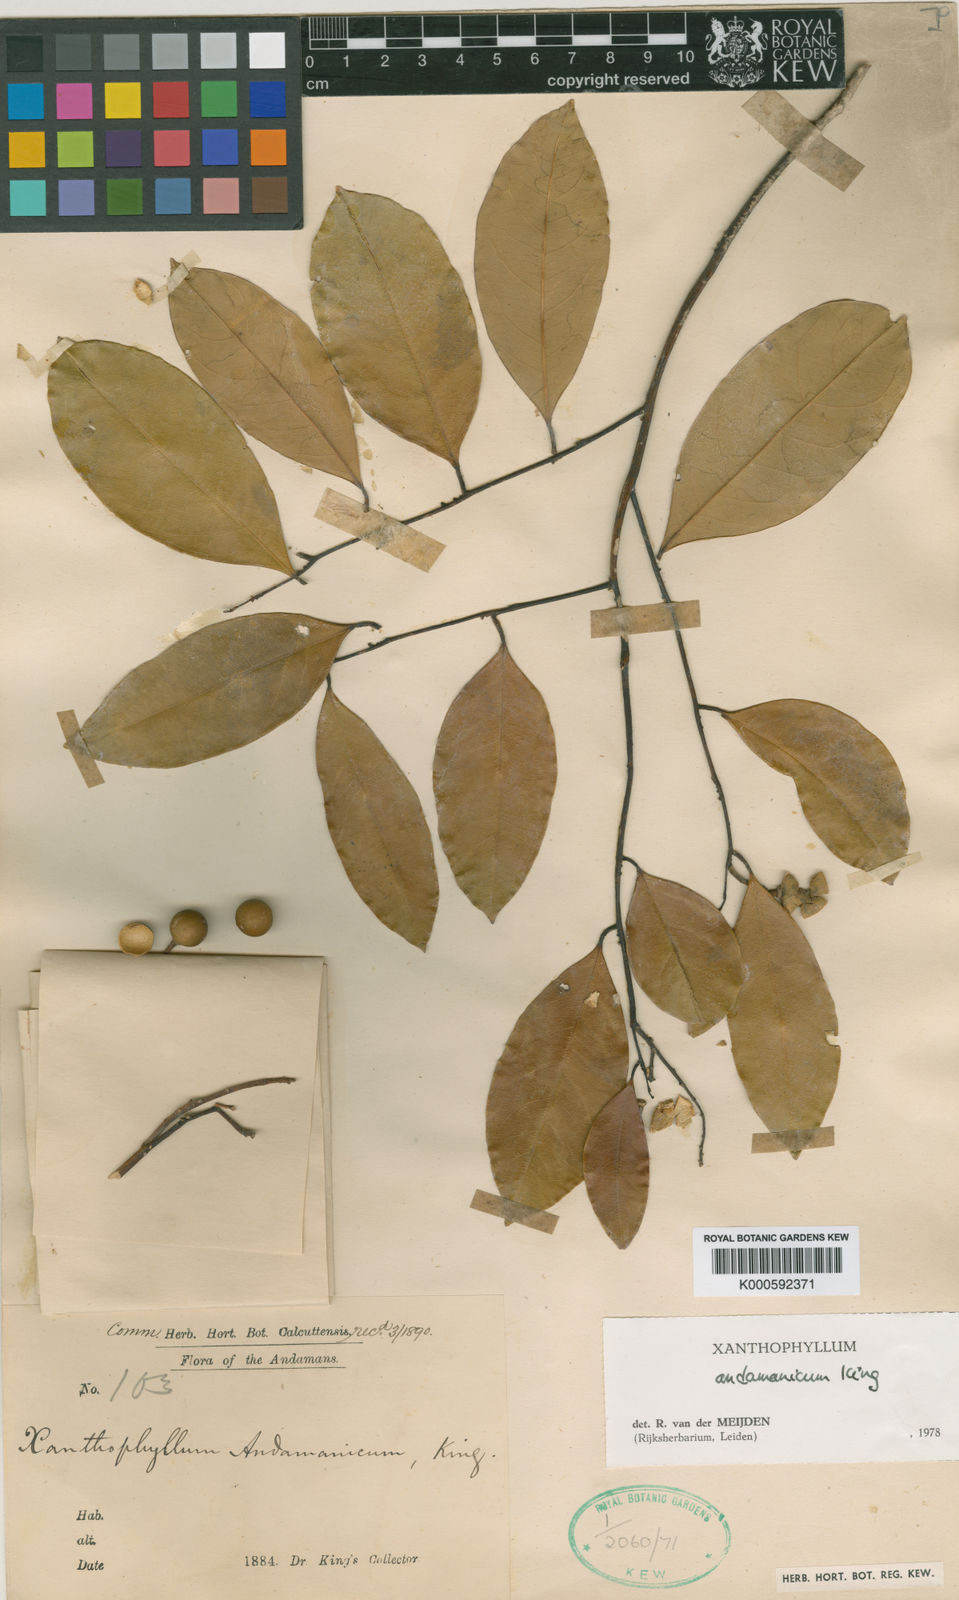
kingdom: Plantae
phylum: Tracheophyta
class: Magnoliopsida
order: Fabales
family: Polygalaceae
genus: Xanthophyllum
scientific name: Xanthophyllum andamanicum
